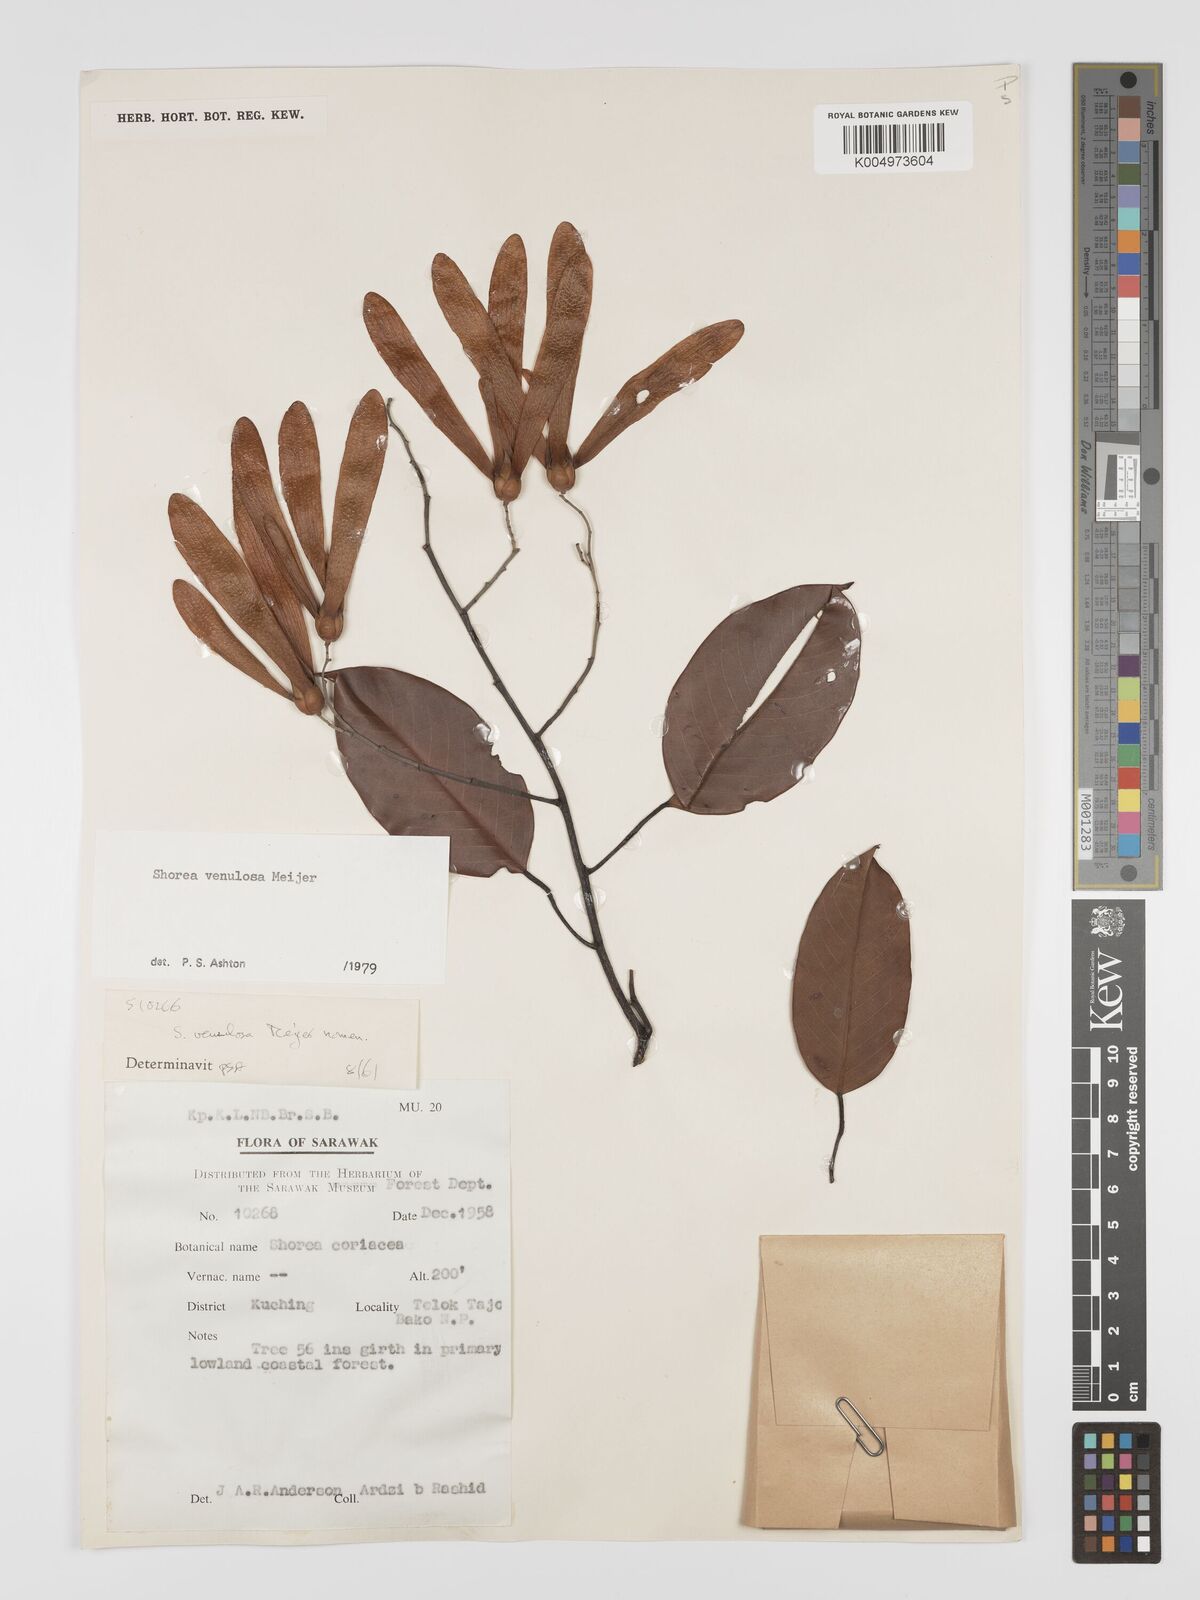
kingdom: Plantae
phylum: Tracheophyta
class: Magnoliopsida
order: Malvales
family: Dipterocarpaceae
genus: Shorea
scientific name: Shorea venulosa
